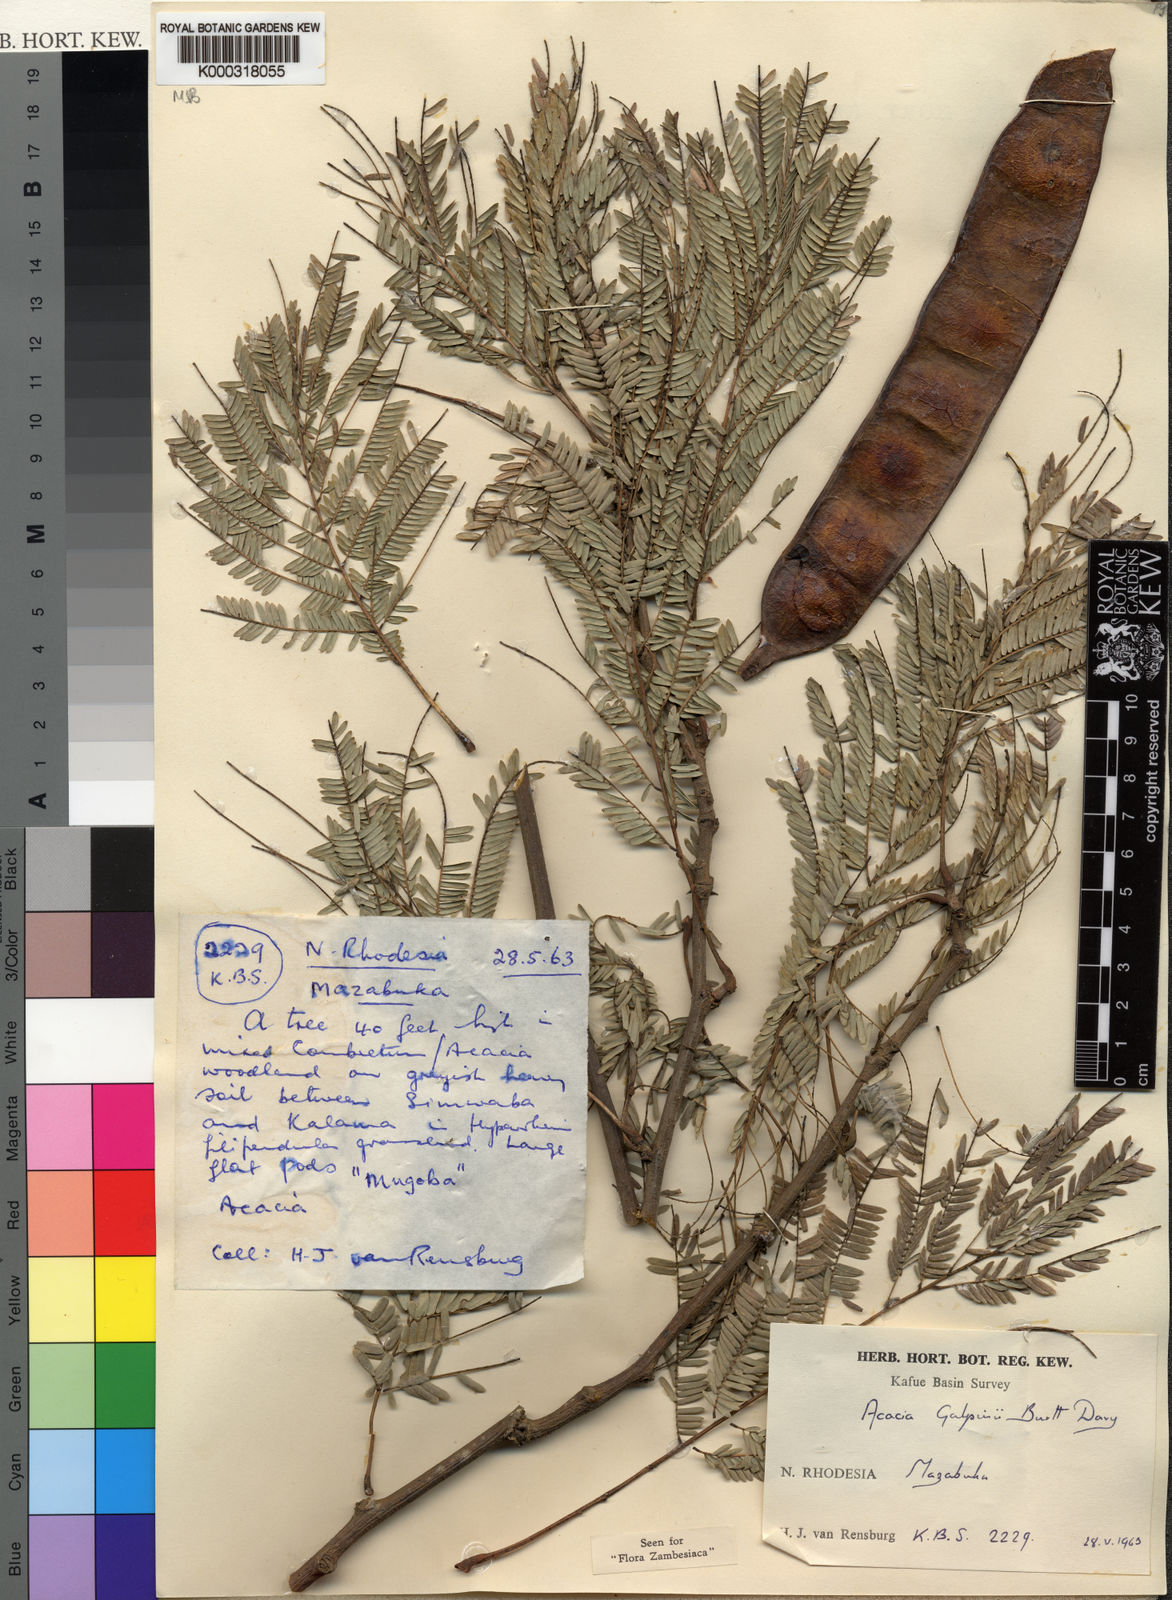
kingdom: Plantae
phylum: Tracheophyta
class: Magnoliopsida
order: Fabales
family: Fabaceae
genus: Senegalia
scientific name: Senegalia galpinii
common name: Monkey-thorn
